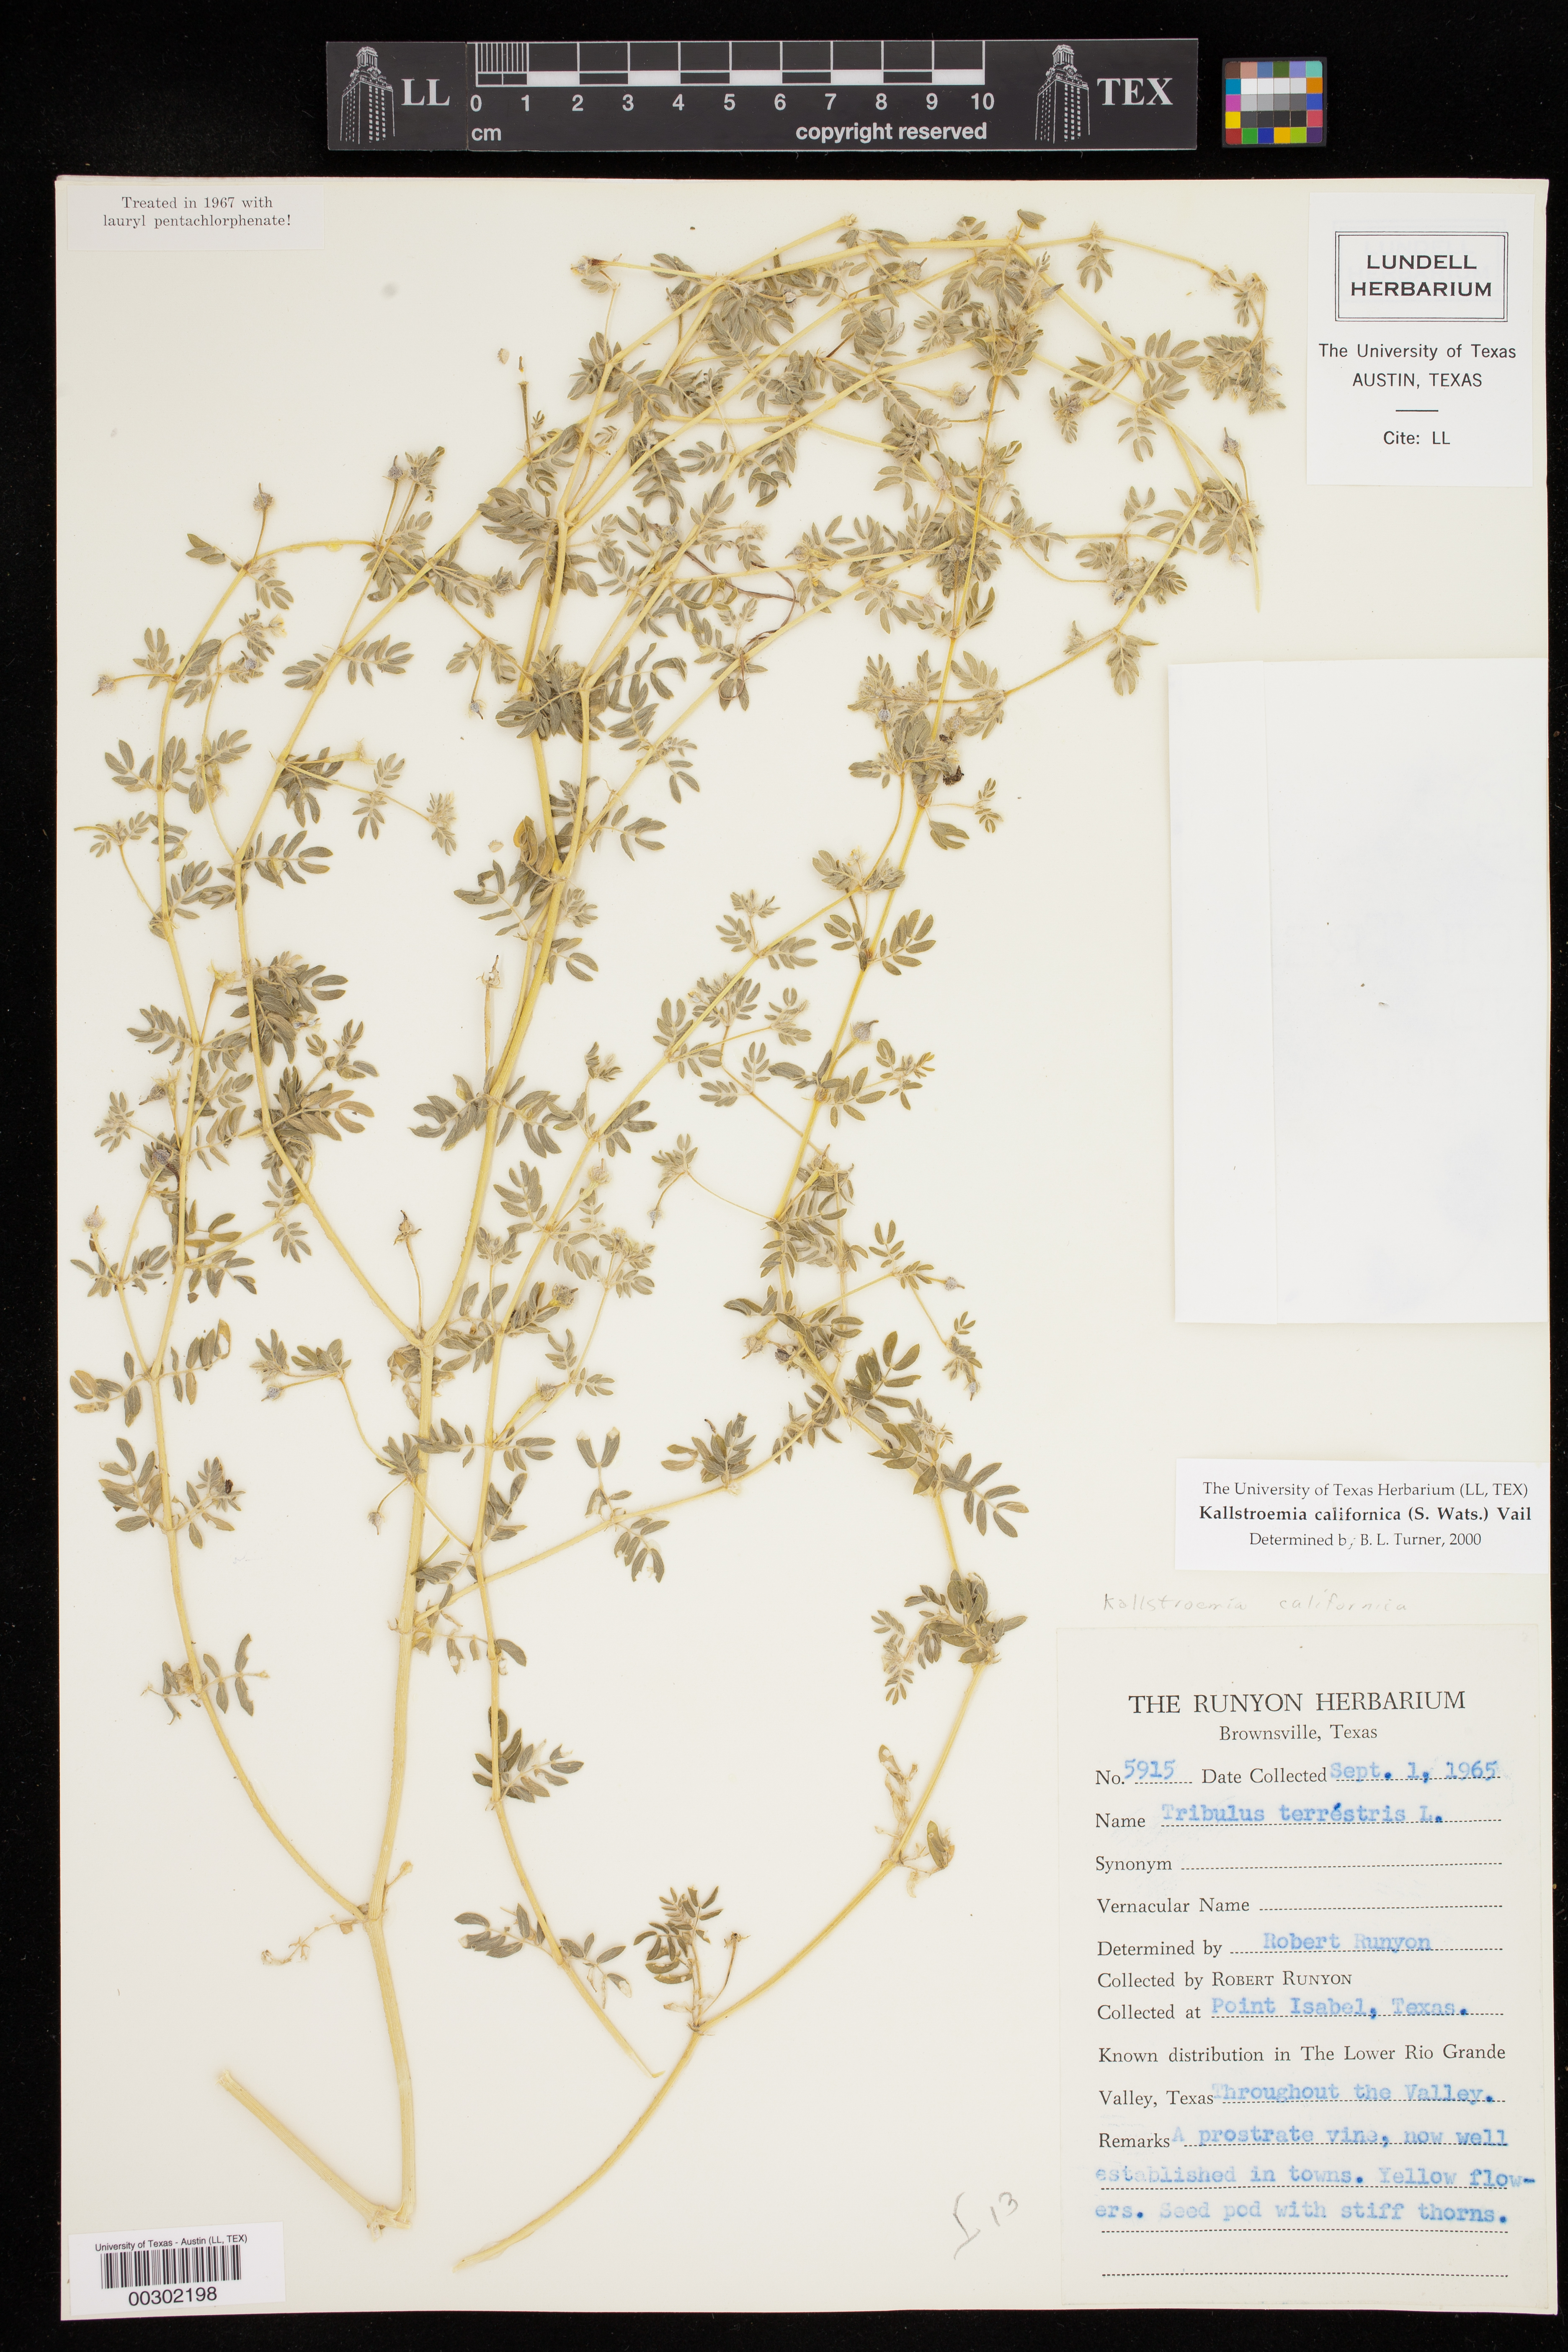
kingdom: Plantae
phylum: Tracheophyta
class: Magnoliopsida
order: Zygophyllales
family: Zygophyllaceae
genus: Kallstroemia
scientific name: Kallstroemia californica
